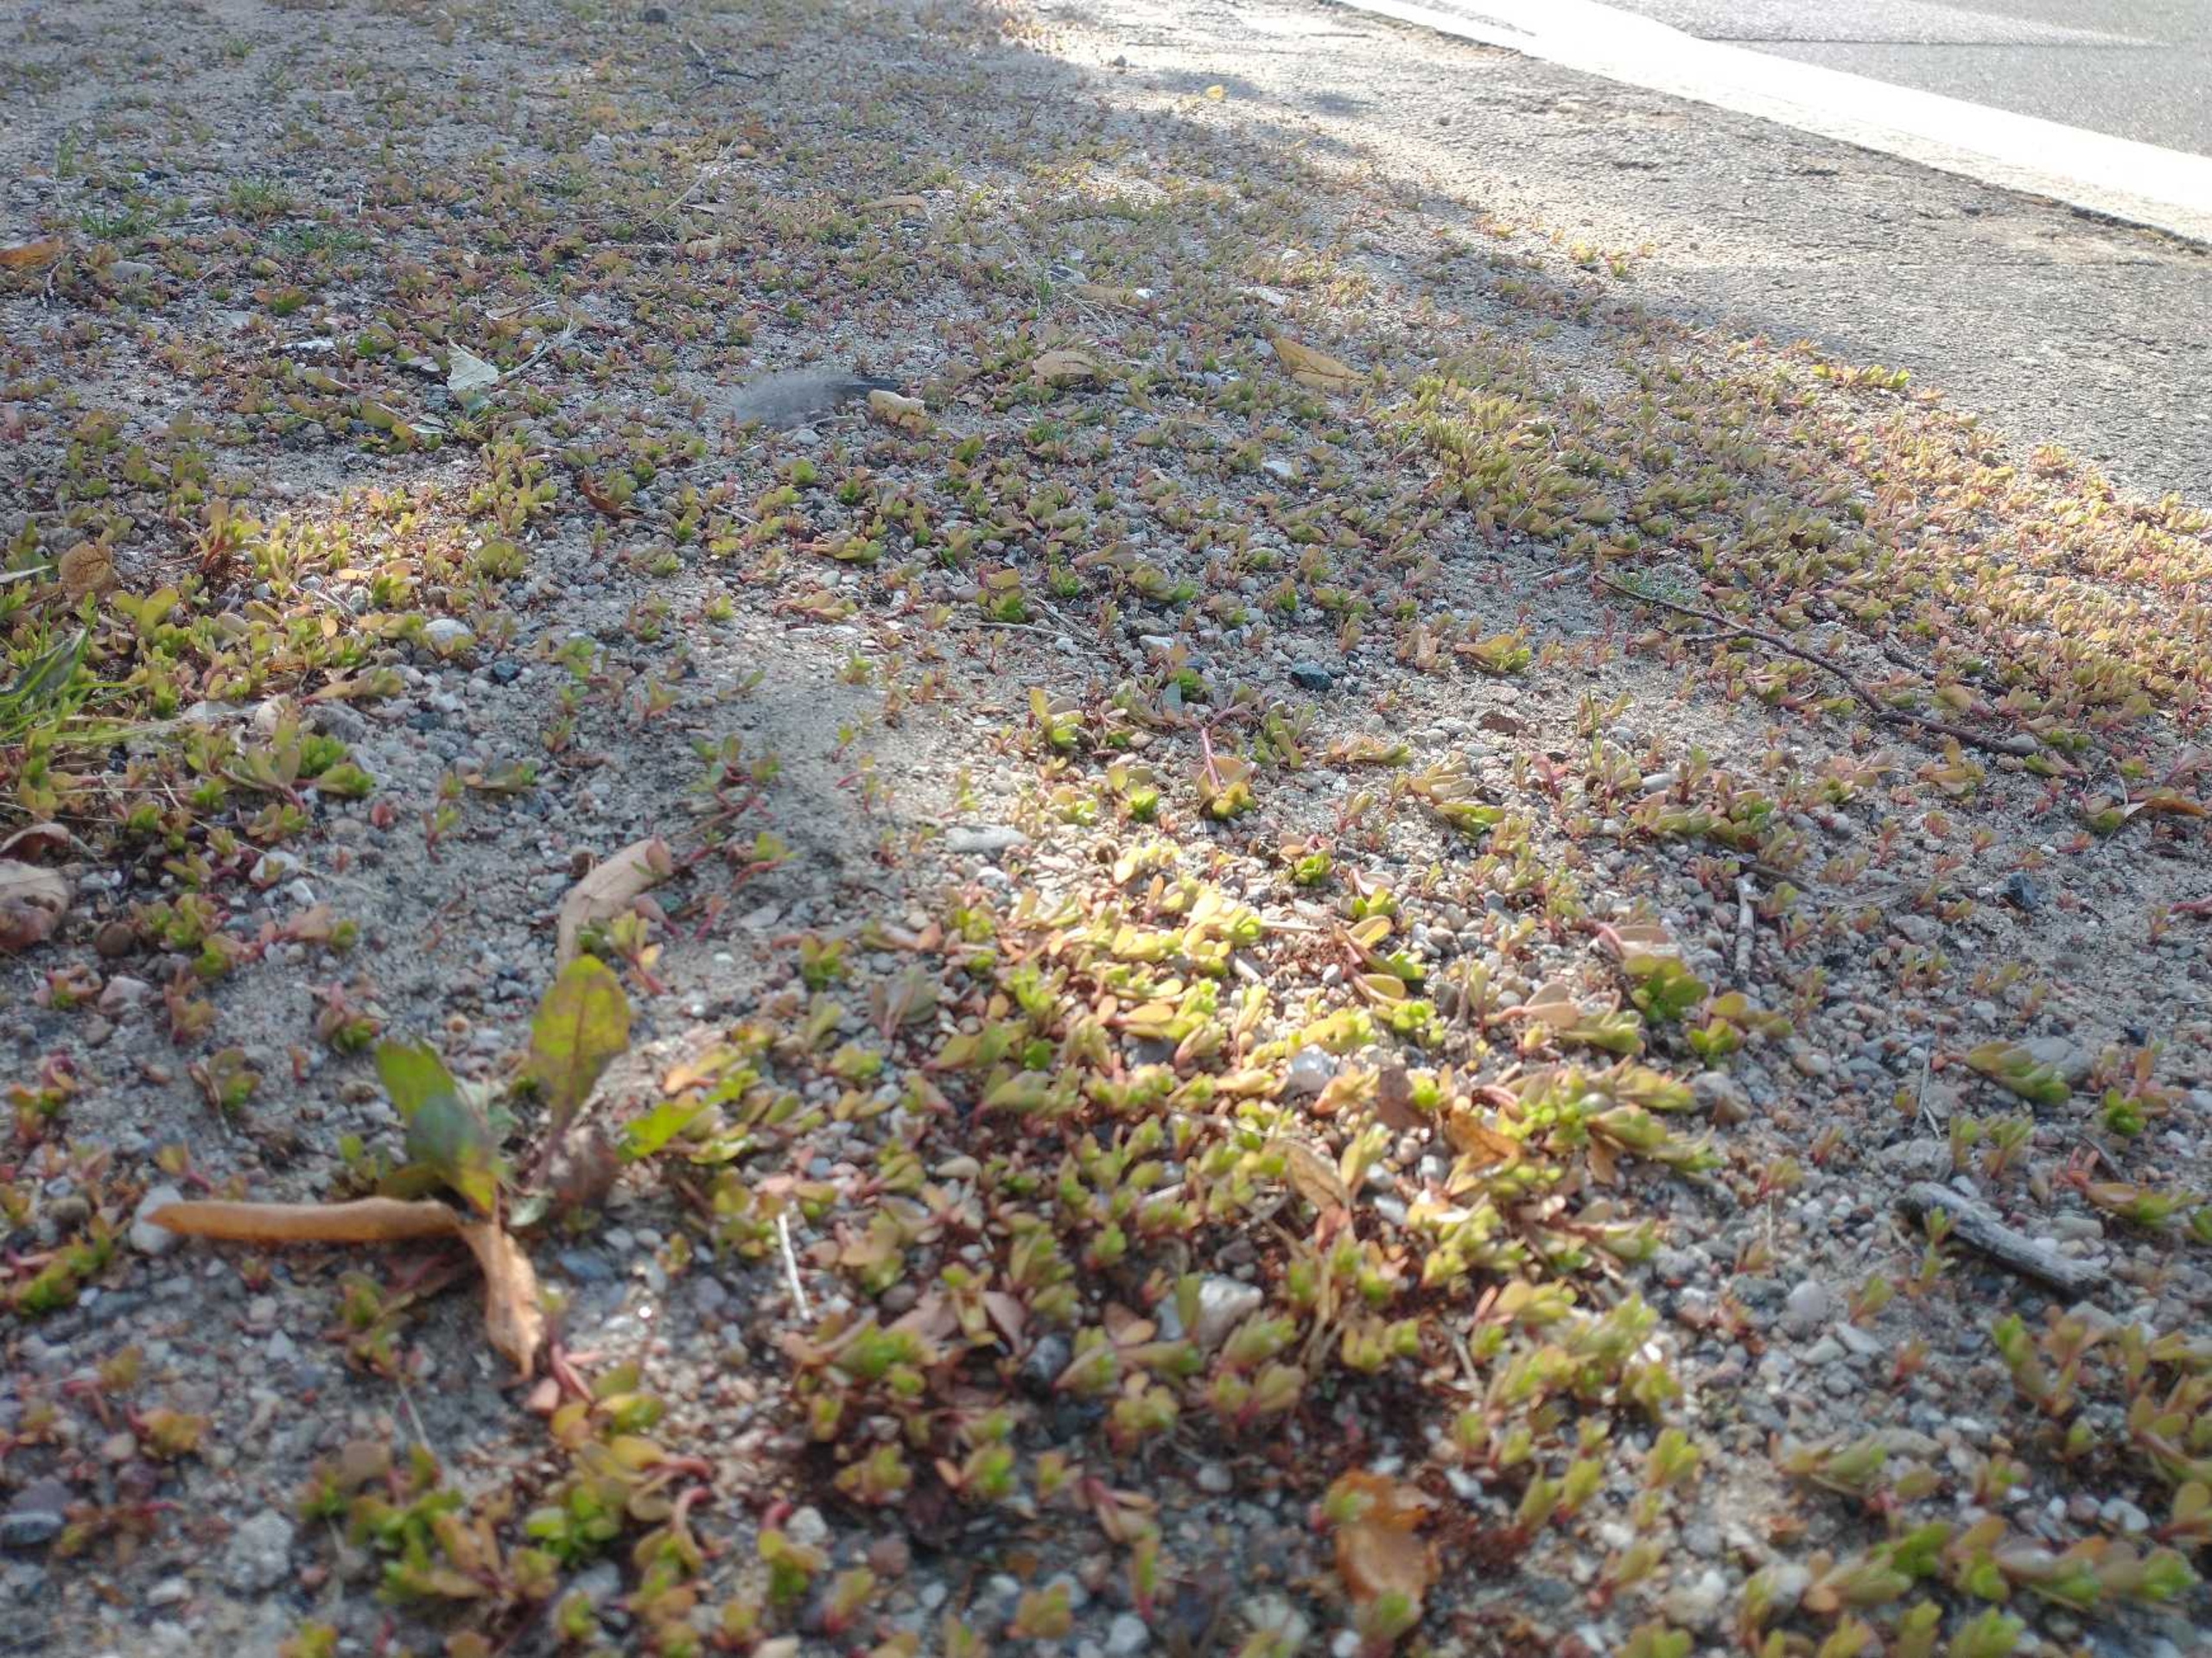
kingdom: Plantae
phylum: Tracheophyta
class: Magnoliopsida
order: Caryophyllales
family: Portulacaceae
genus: Portulaca
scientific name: Portulaca oleracea
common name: Portulak
